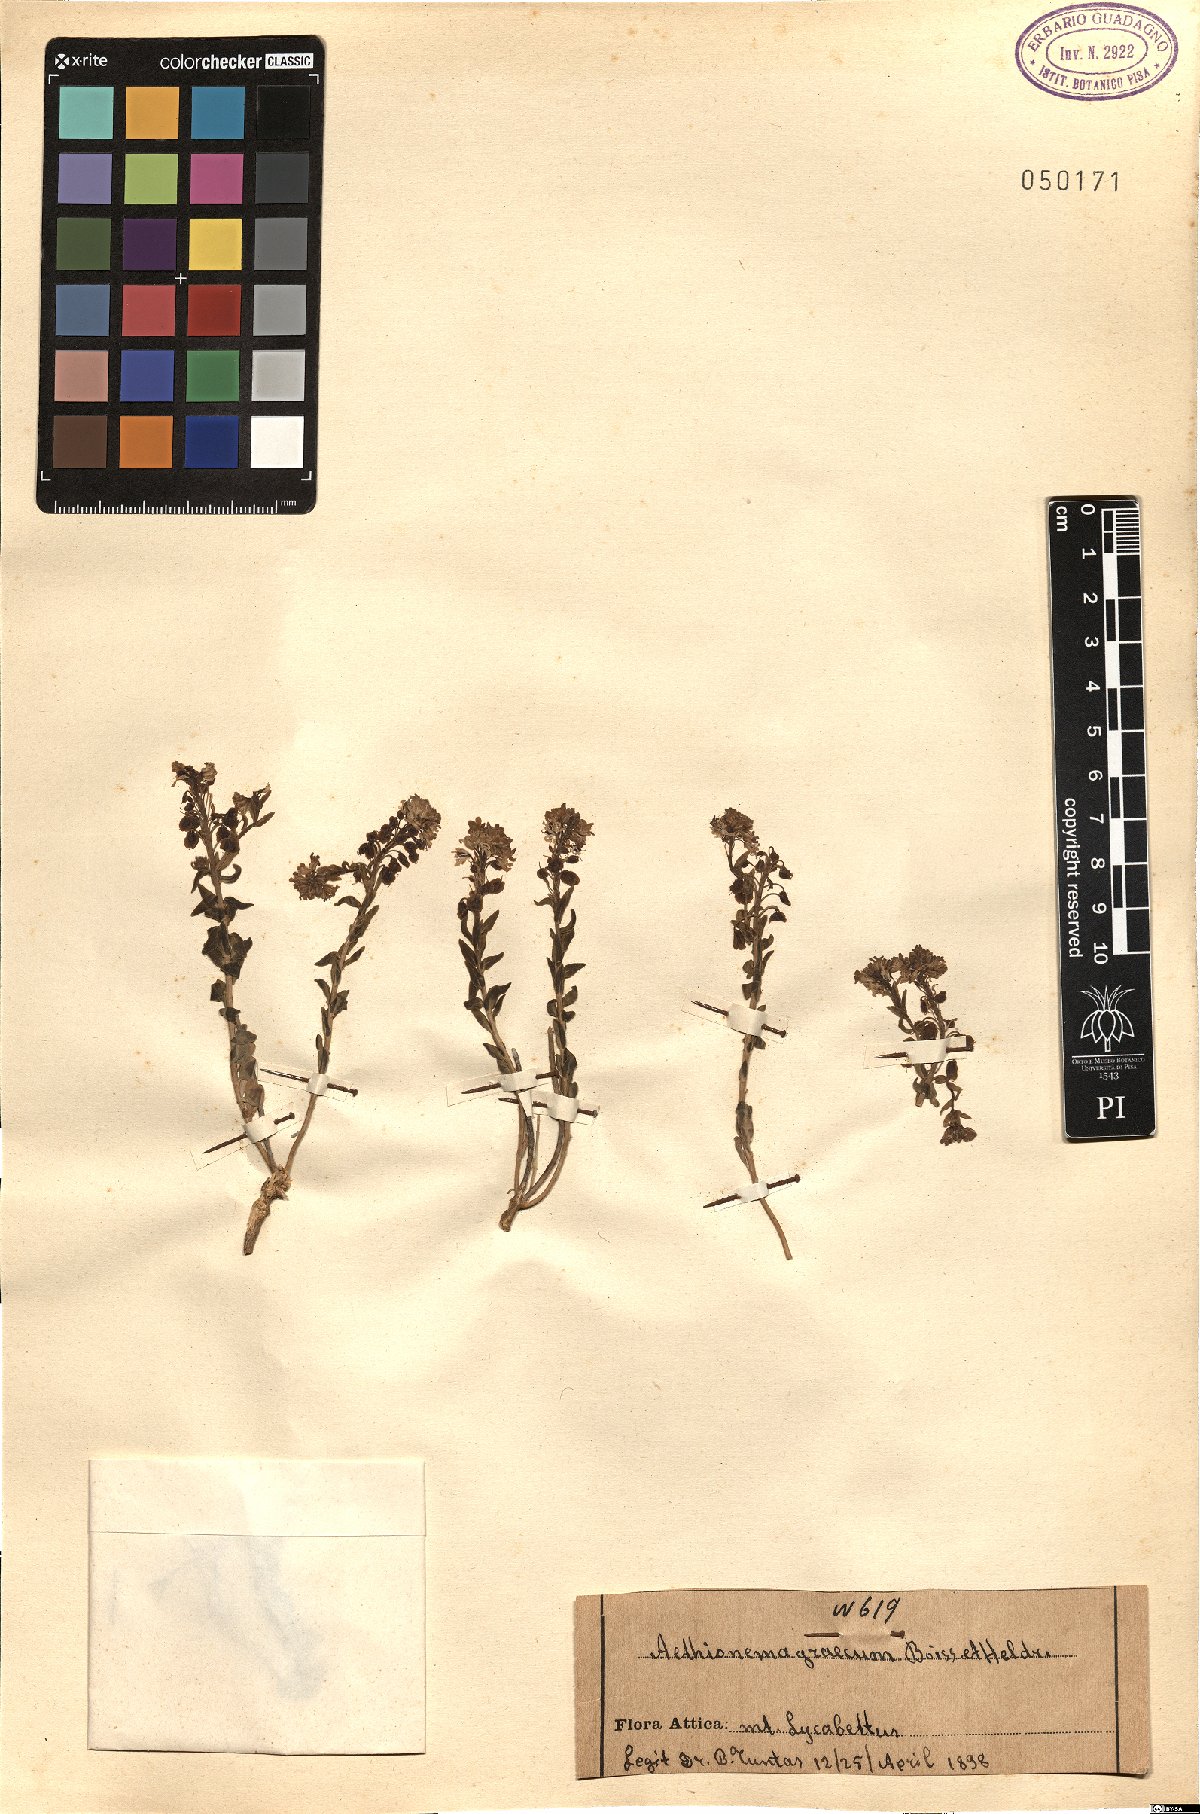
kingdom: Plantae
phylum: Tracheophyta
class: Magnoliopsida
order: Brassicales
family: Brassicaceae
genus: Aethionema
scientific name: Aethionema saxatile
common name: Burnt candytuft
